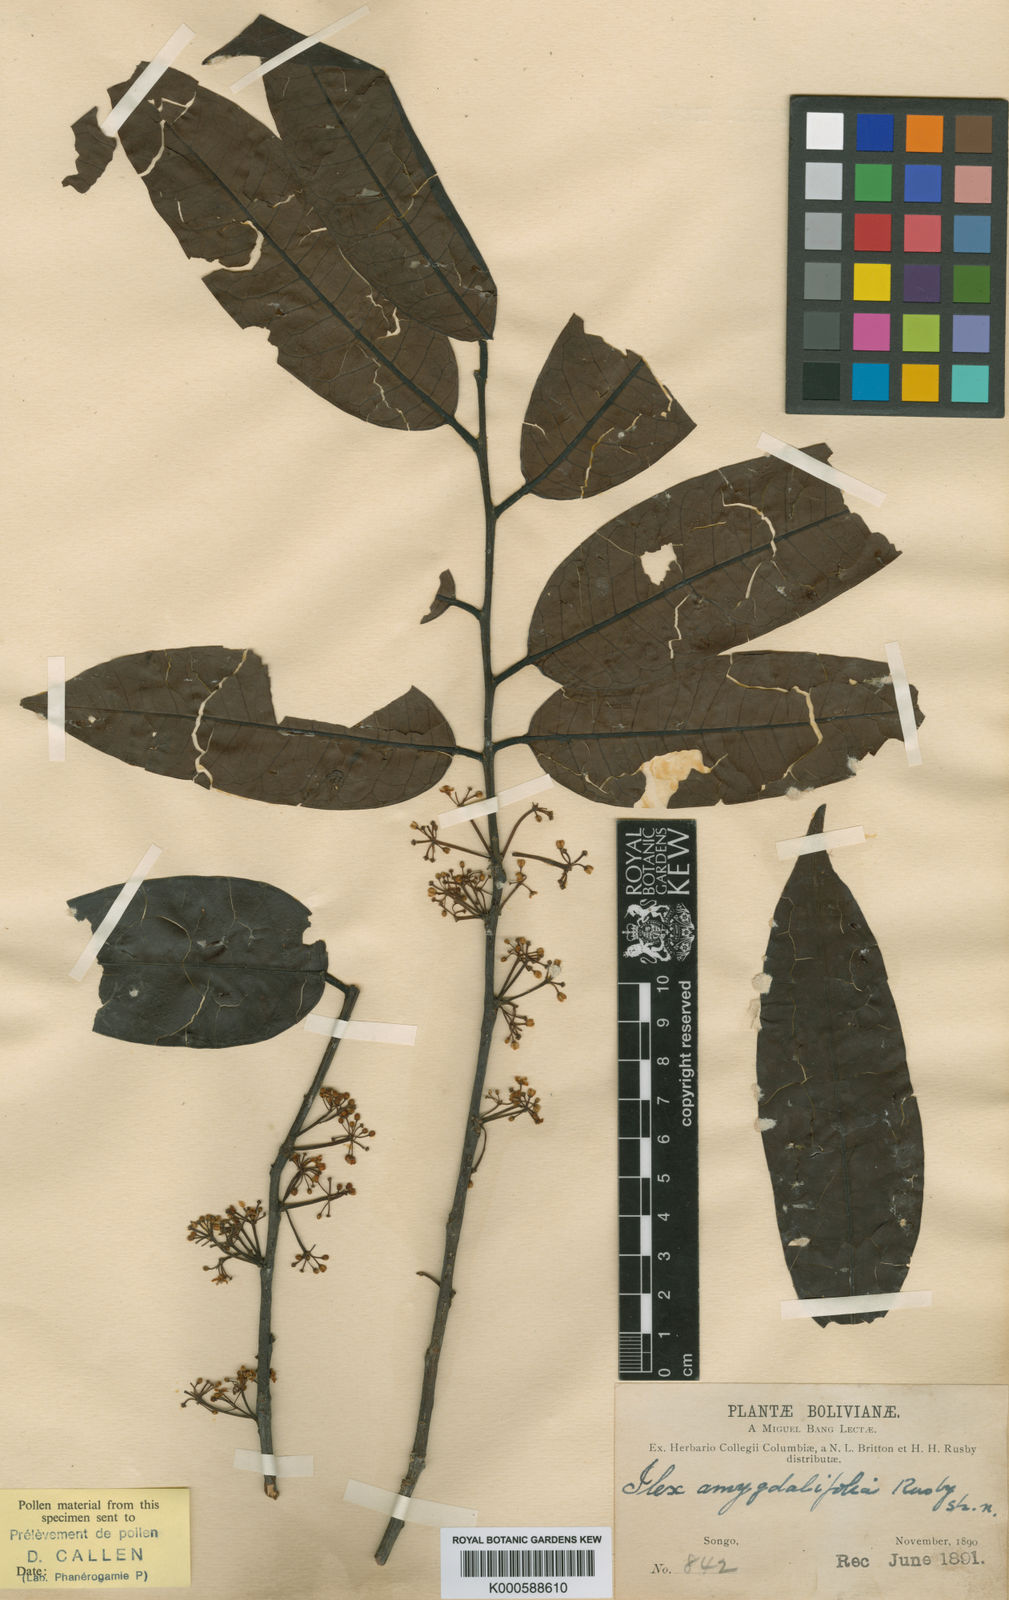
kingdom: Plantae
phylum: Tracheophyta
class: Magnoliopsida
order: Aquifoliales
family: Aquifoliaceae
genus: Ilex
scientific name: Ilex aggregata
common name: Clustered holly
